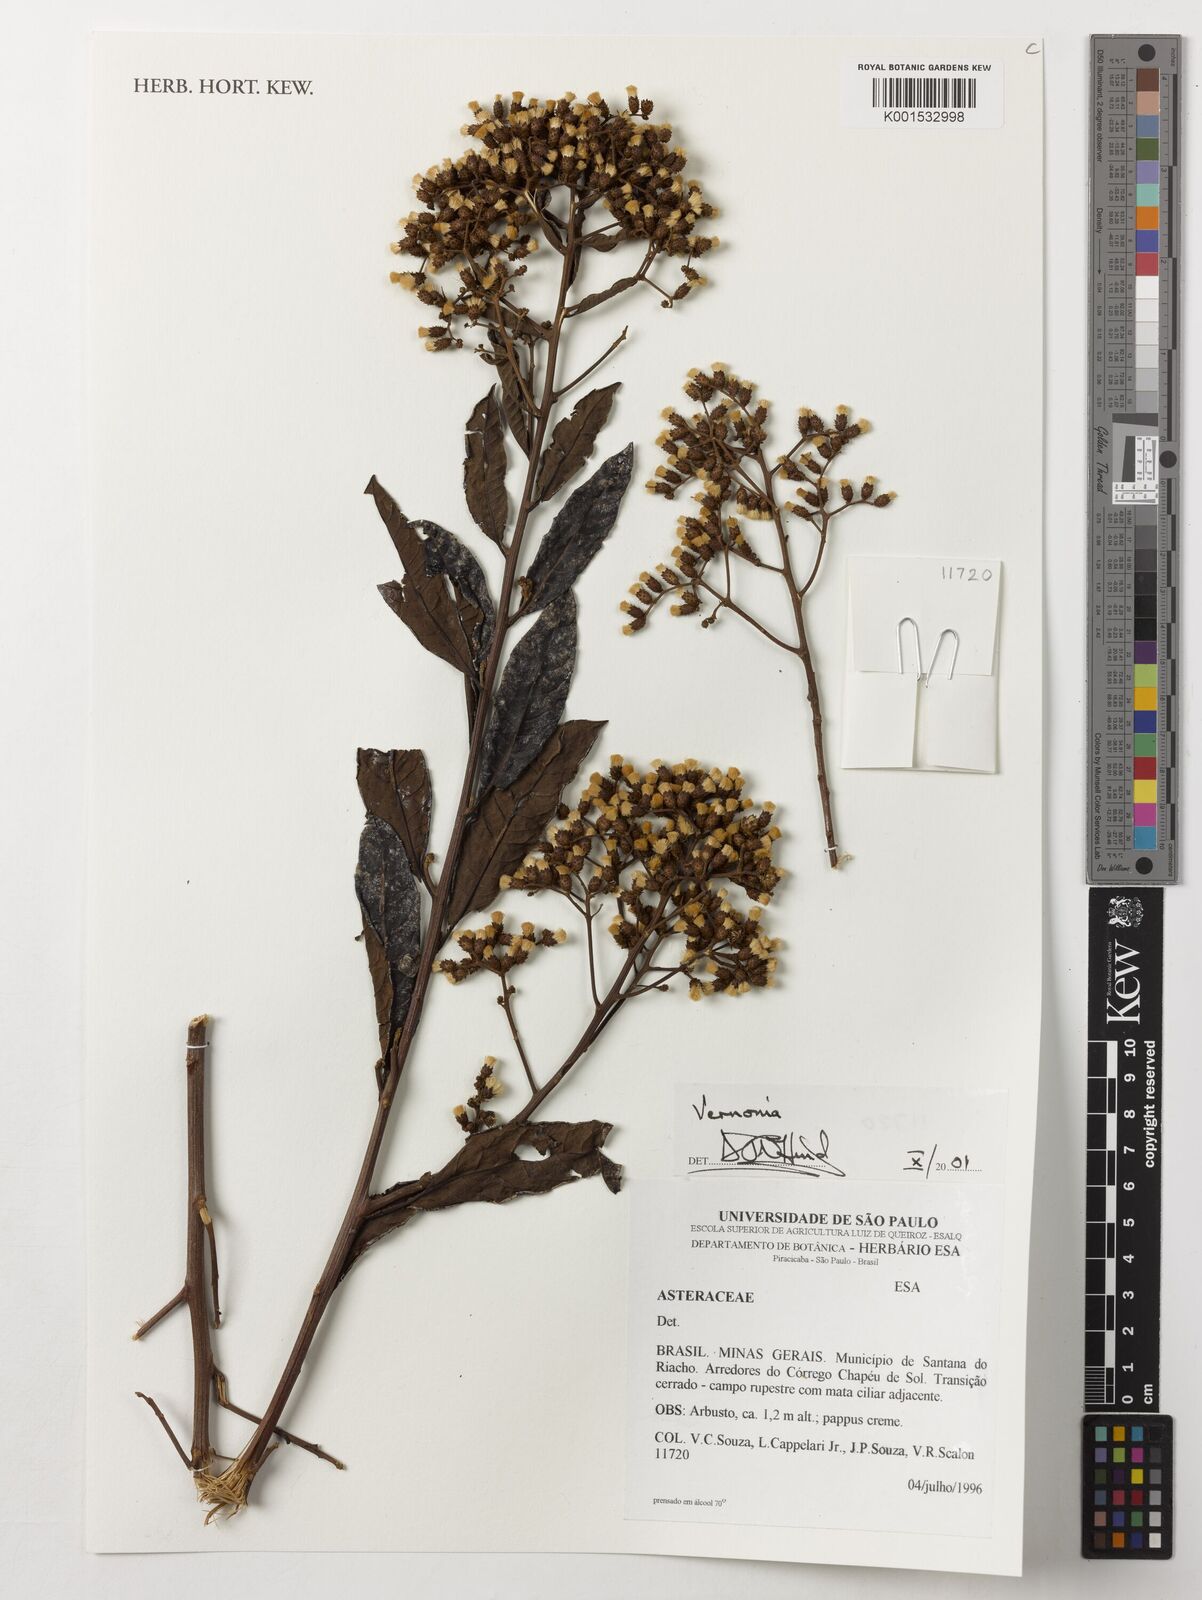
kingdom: Plantae
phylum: Tracheophyta
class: Magnoliopsida
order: Asterales
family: Asteraceae
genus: Vernonia
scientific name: Vernonia
